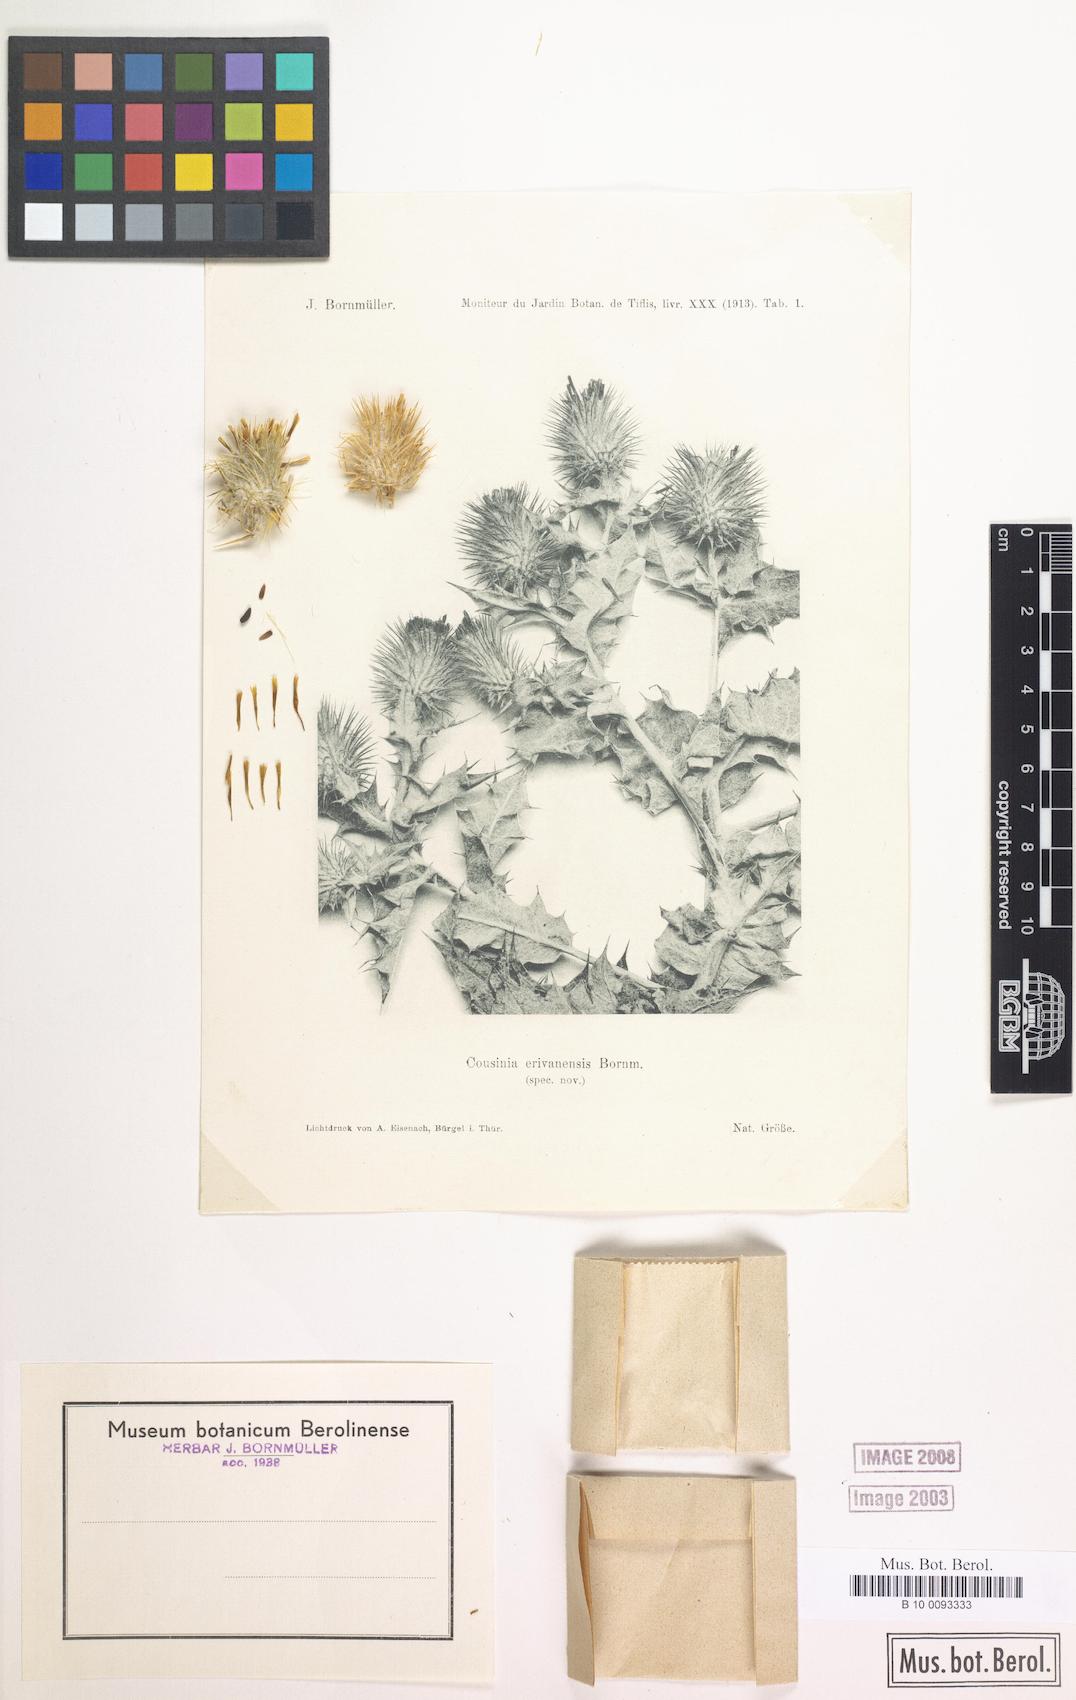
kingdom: Plantae
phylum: Tracheophyta
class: Magnoliopsida
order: Asterales
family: Asteraceae
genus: Cousinia
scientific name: Cousinia erivanensis
